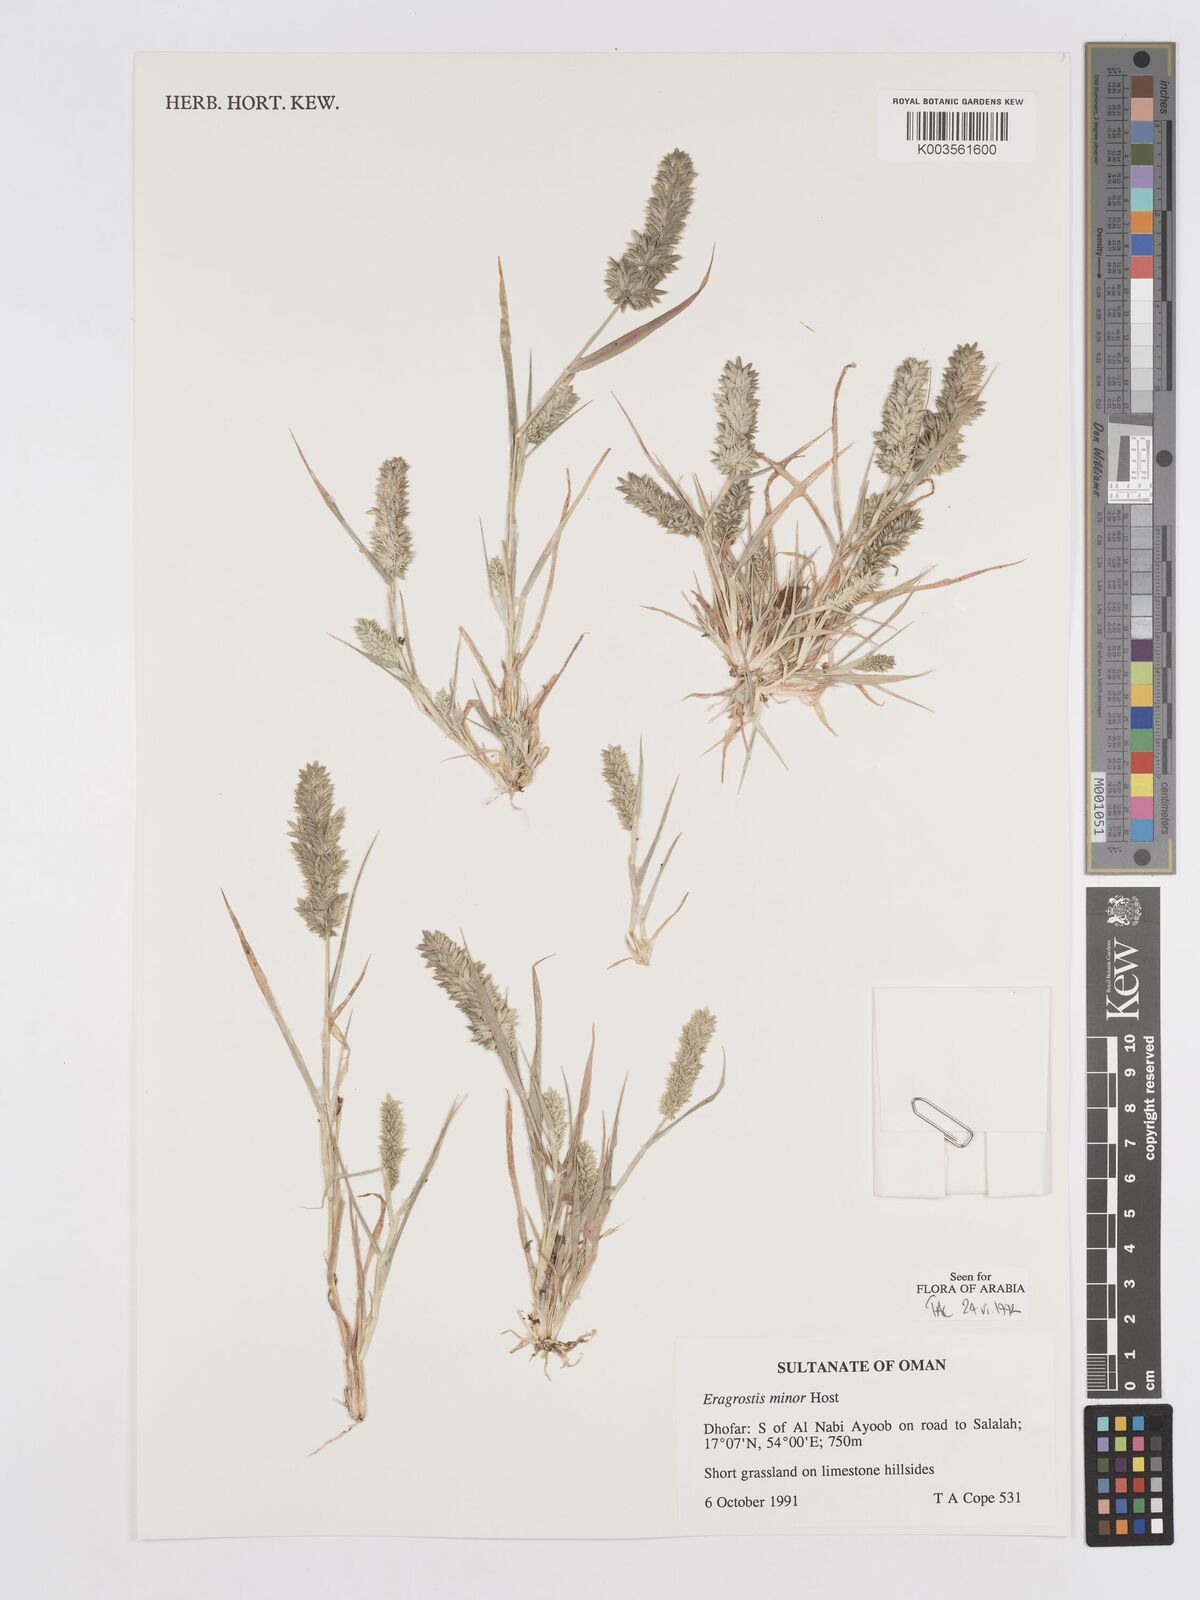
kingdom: Plantae
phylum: Tracheophyta
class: Liliopsida
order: Poales
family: Poaceae
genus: Eragrostis
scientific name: Eragrostis minor
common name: Small love-grass
